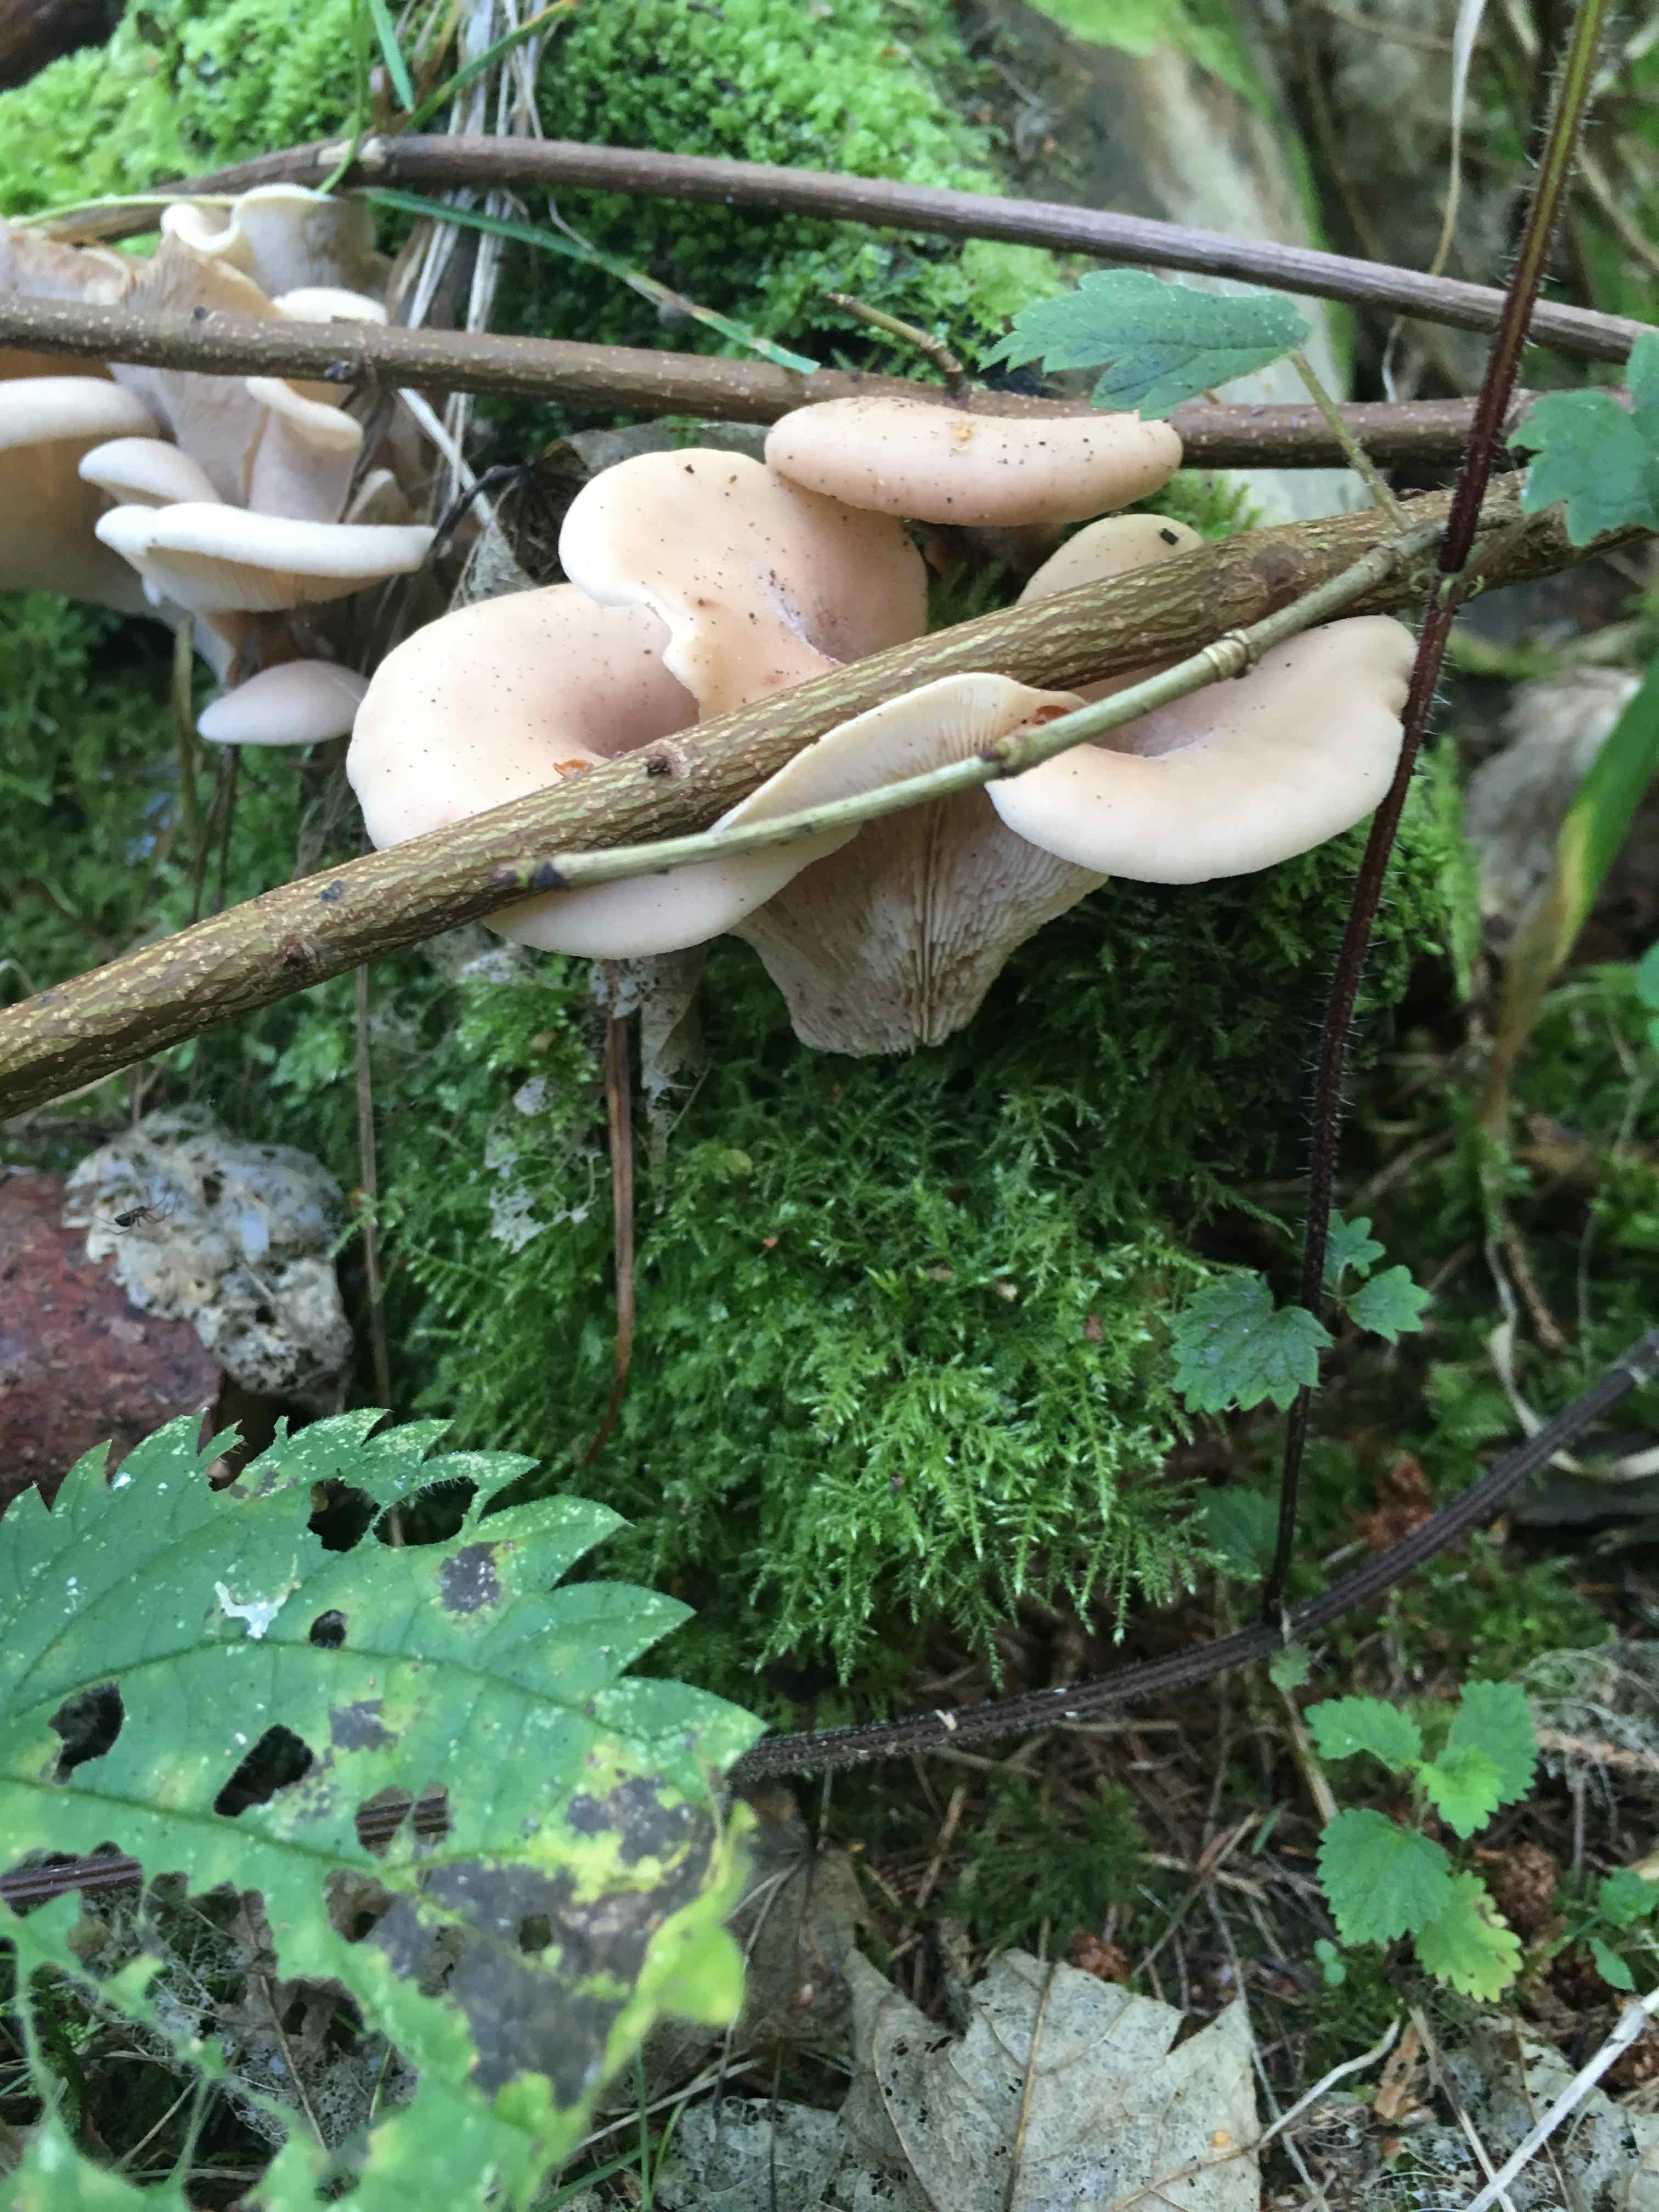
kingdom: Fungi
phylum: Basidiomycota
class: Agaricomycetes
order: Russulales
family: Auriscalpiaceae
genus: Lentinellus
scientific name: Lentinellus ursinus
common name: børstehåret savbladhat
